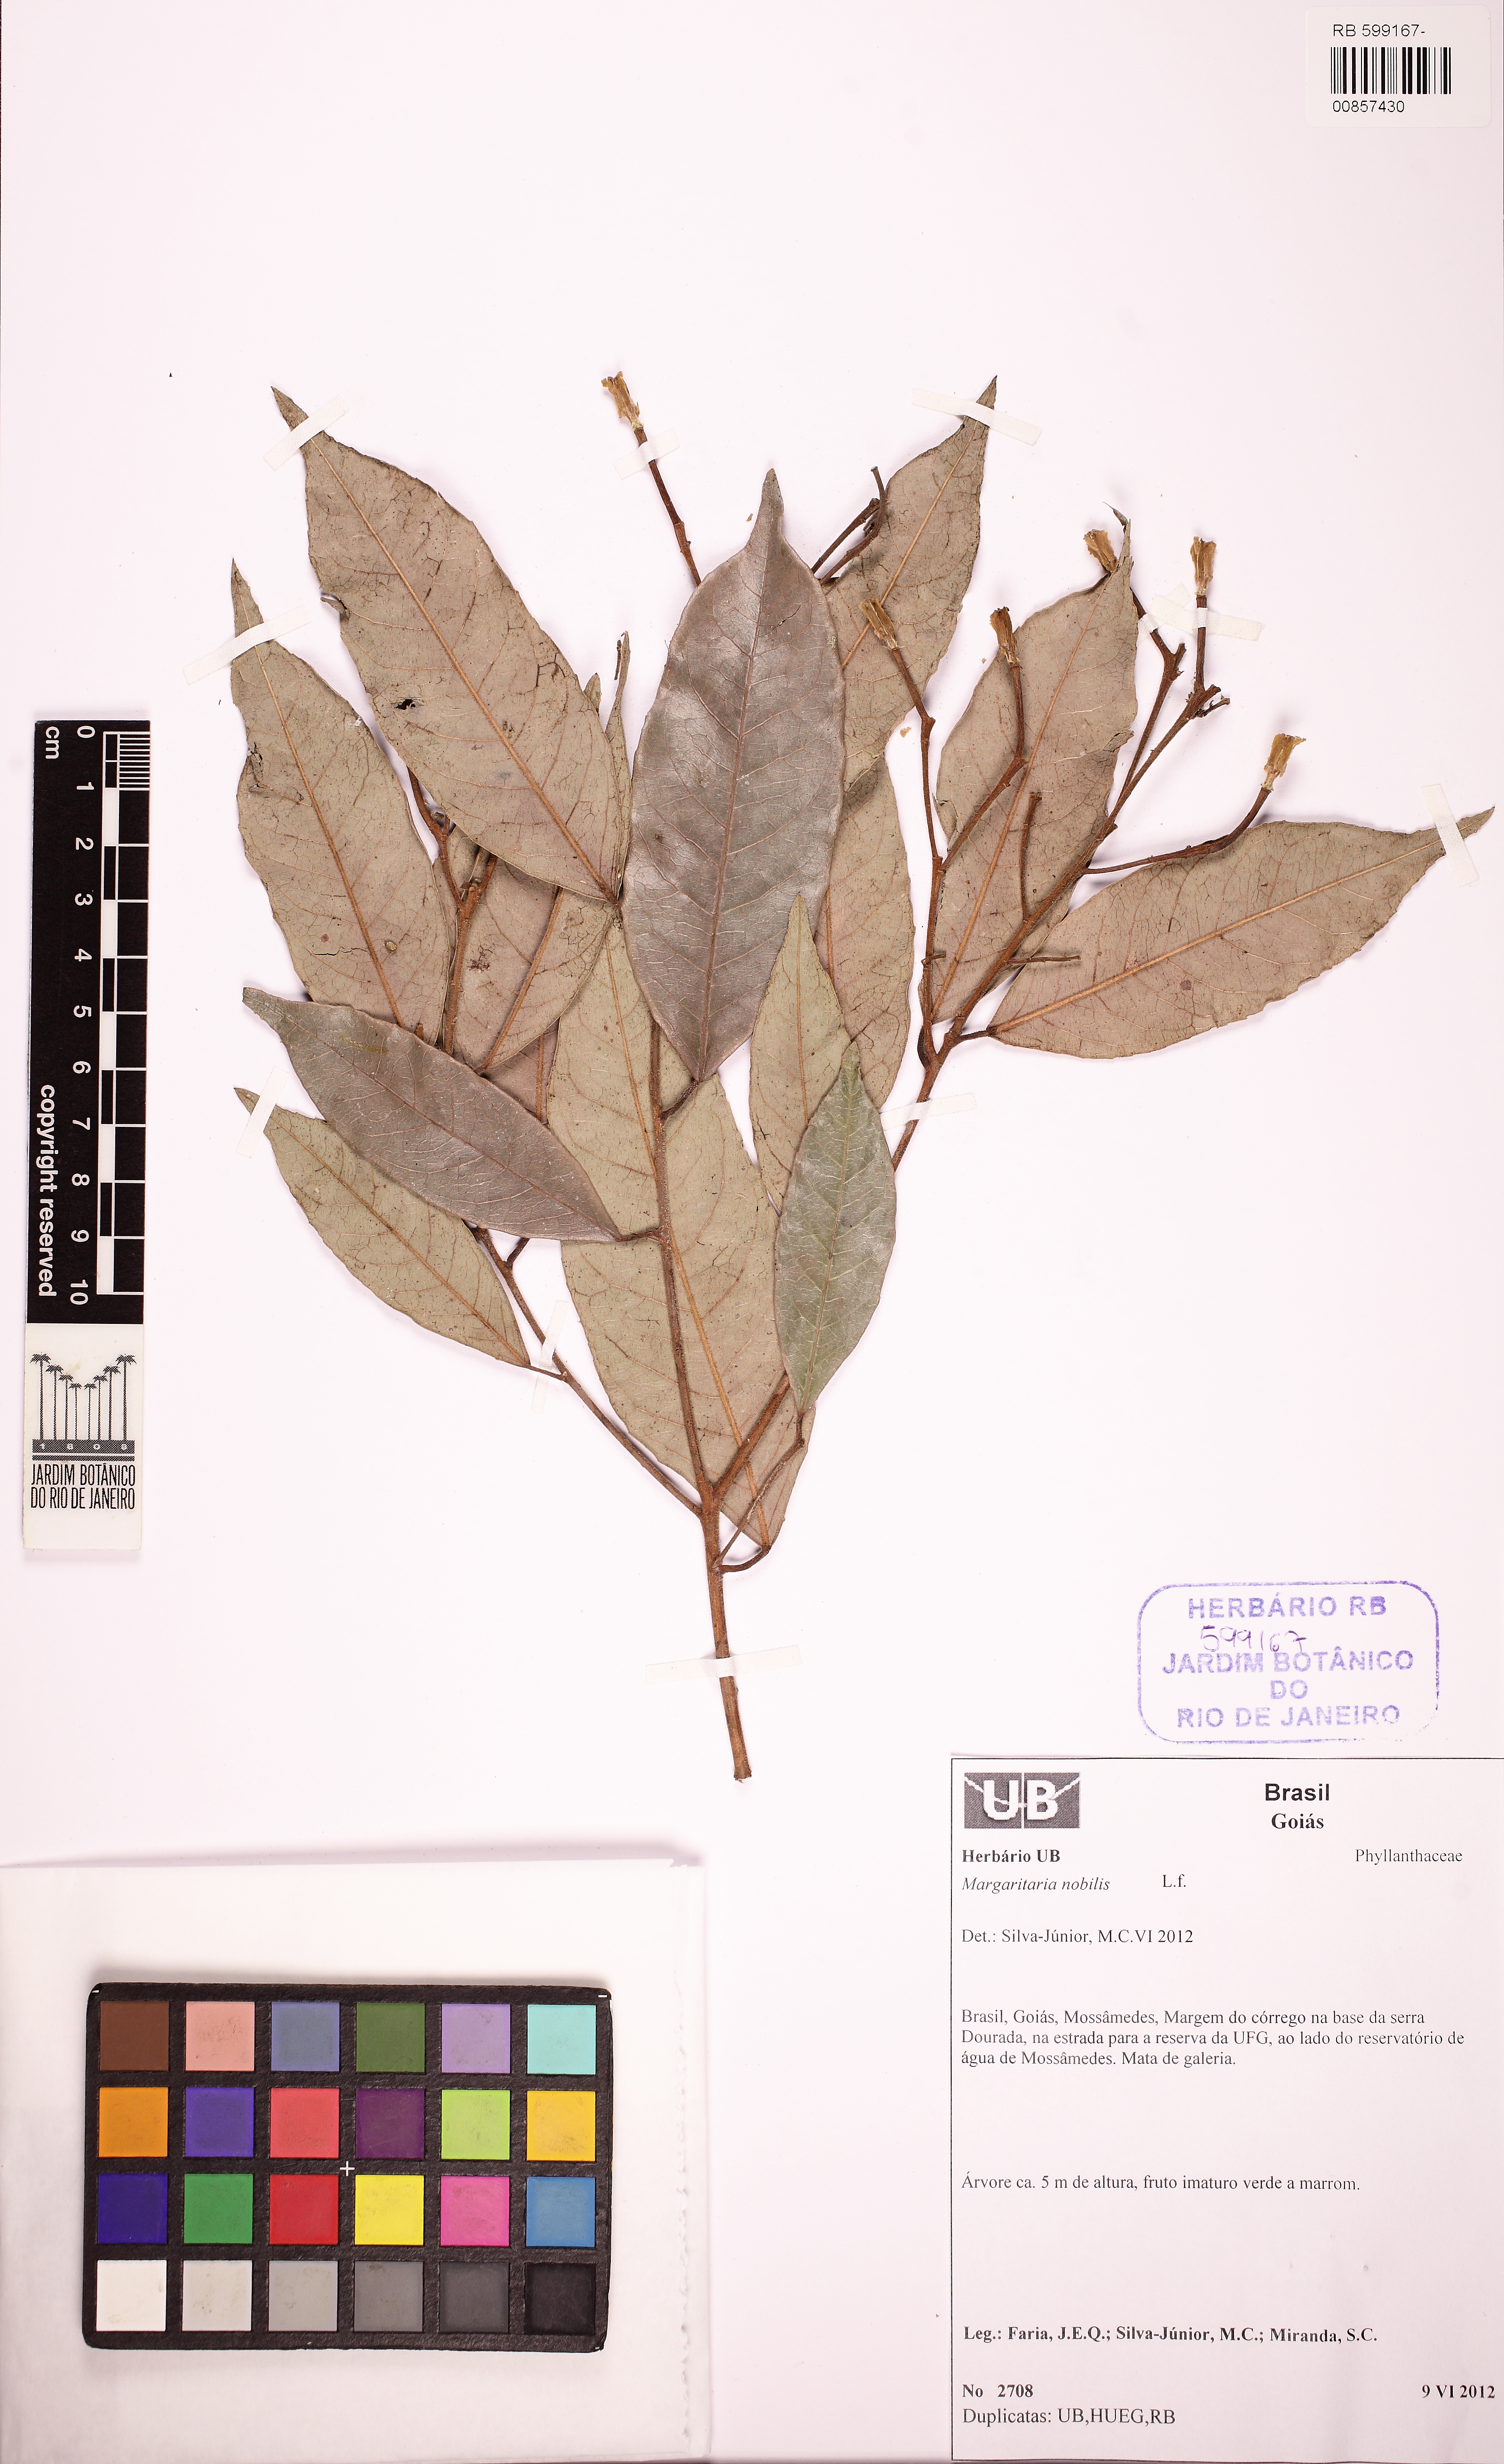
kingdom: Plantae
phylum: Tracheophyta
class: Magnoliopsida
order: Malpighiales
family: Euphorbiaceae
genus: Mabea
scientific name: Mabea
